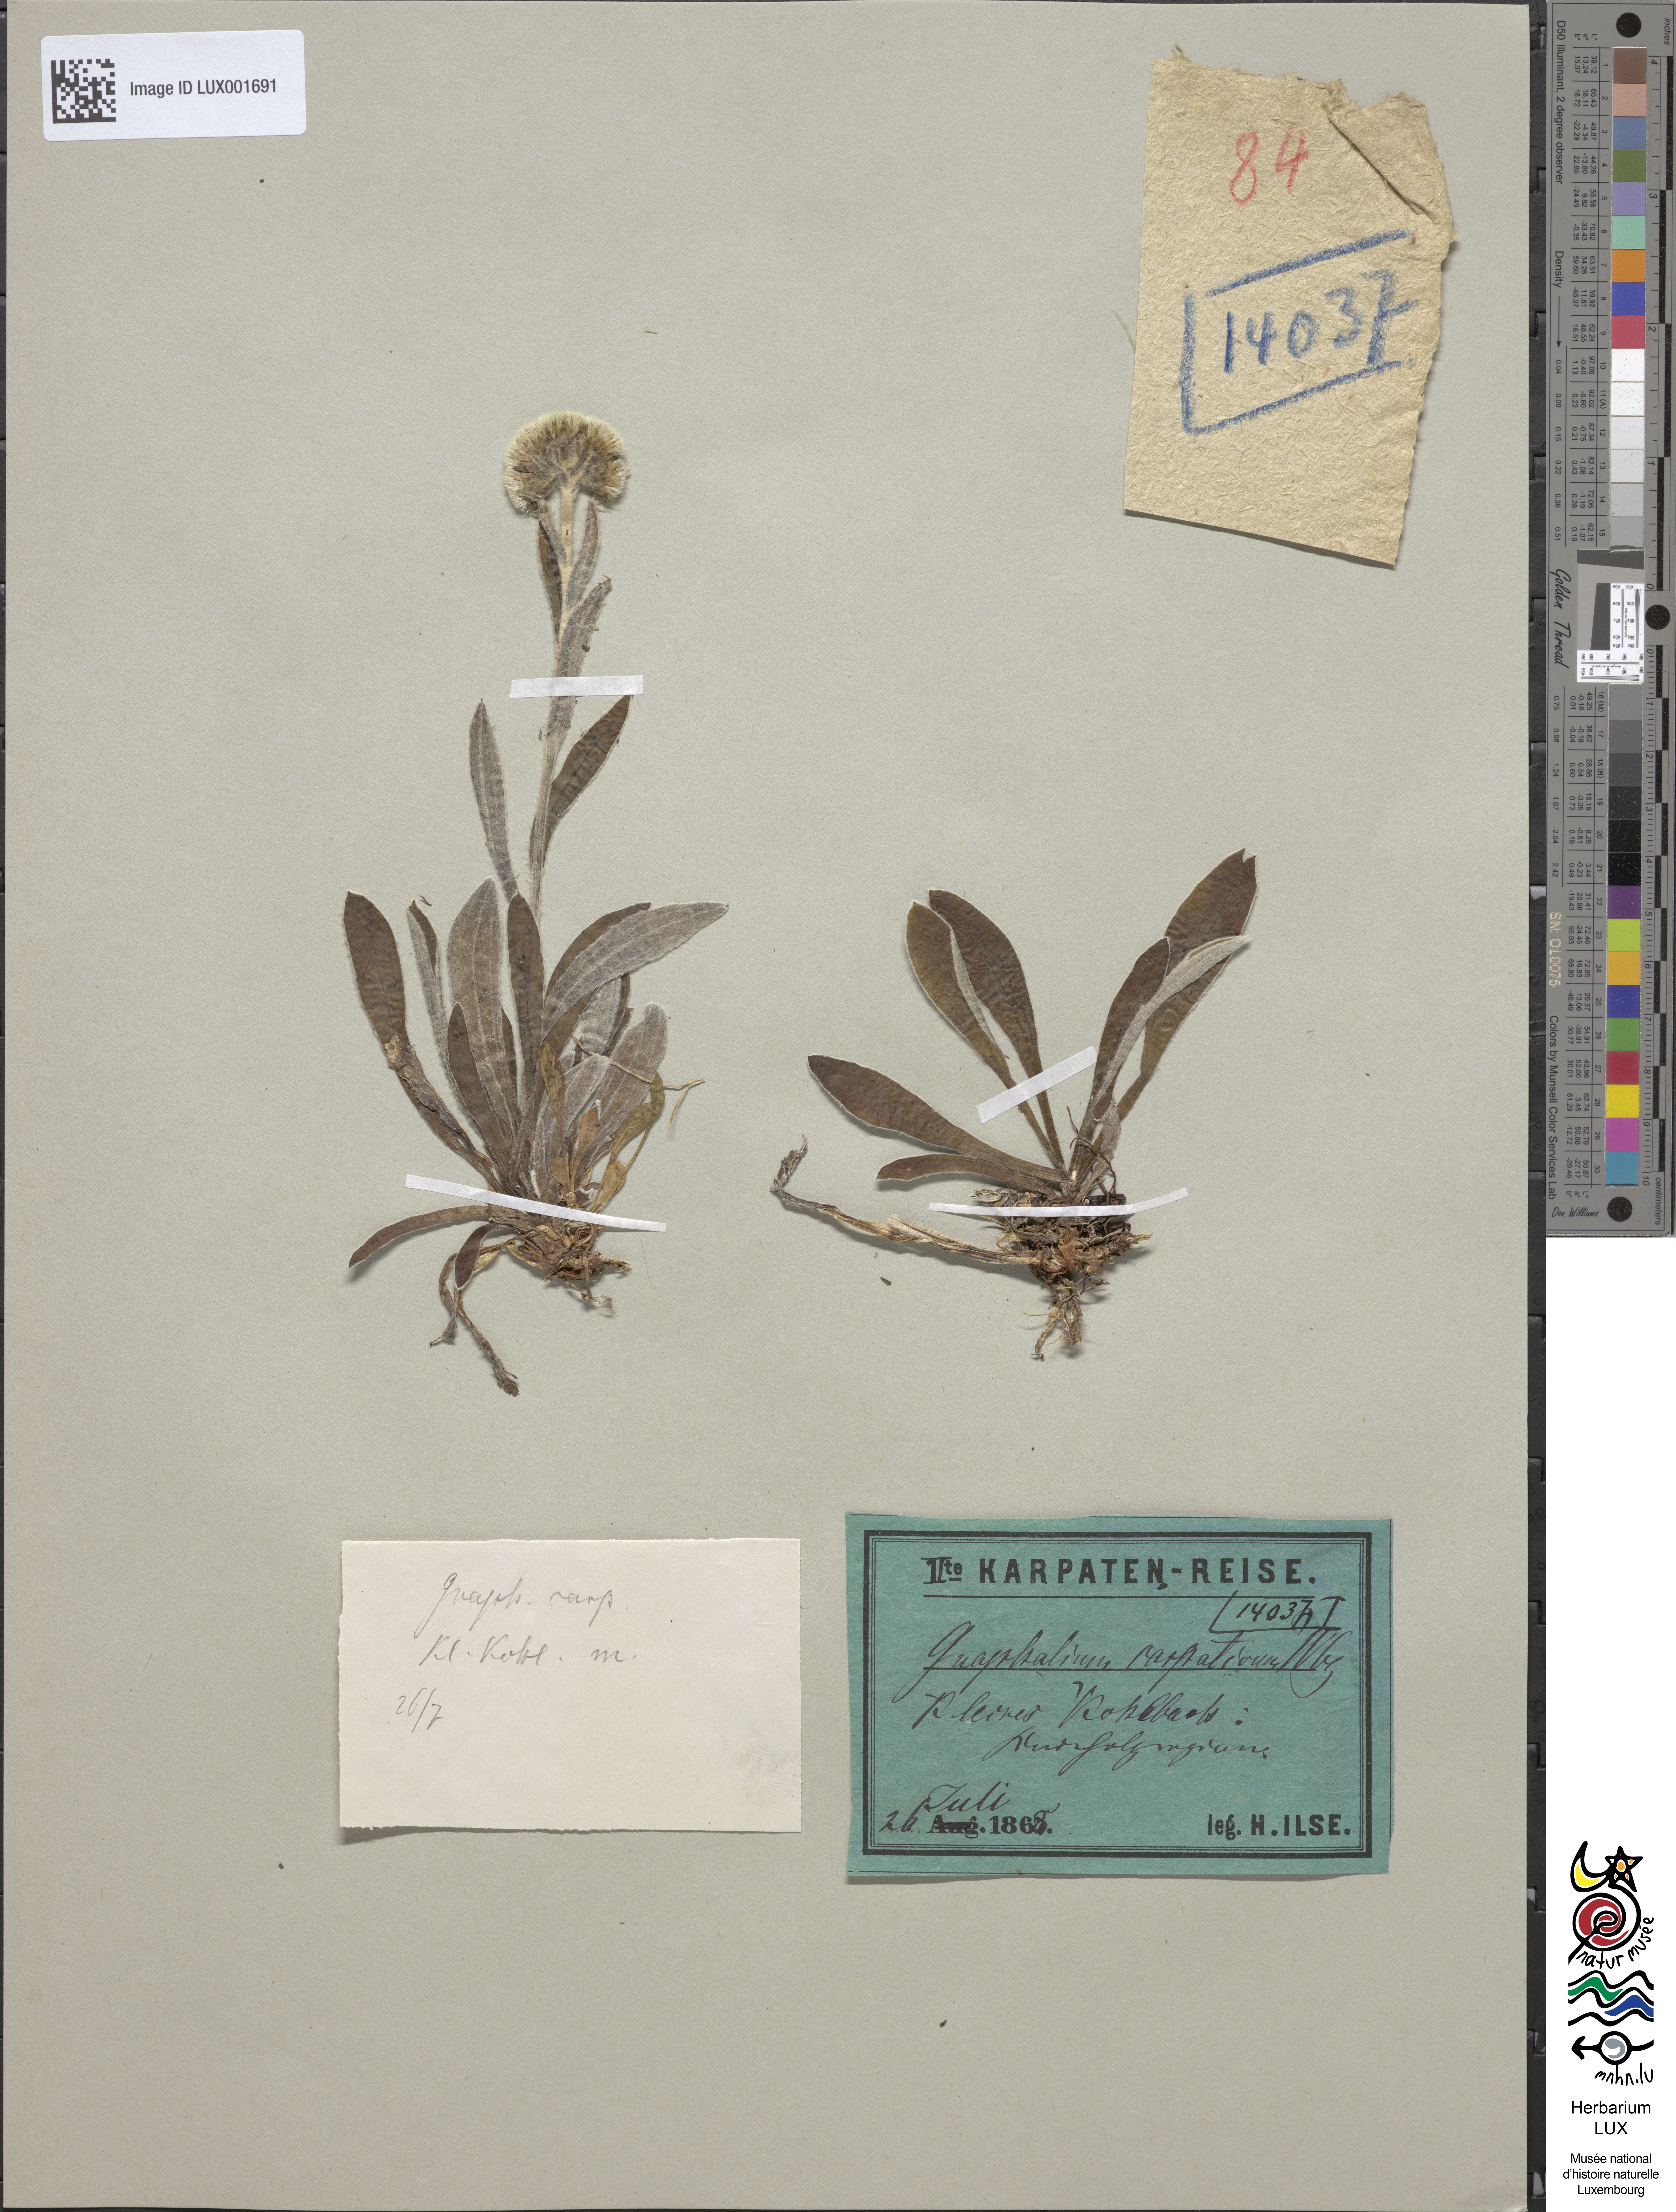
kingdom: Plantae
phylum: Tracheophyta
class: Magnoliopsida
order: Asterales
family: Asteraceae
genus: Antennaria
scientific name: Antennaria carpatica
